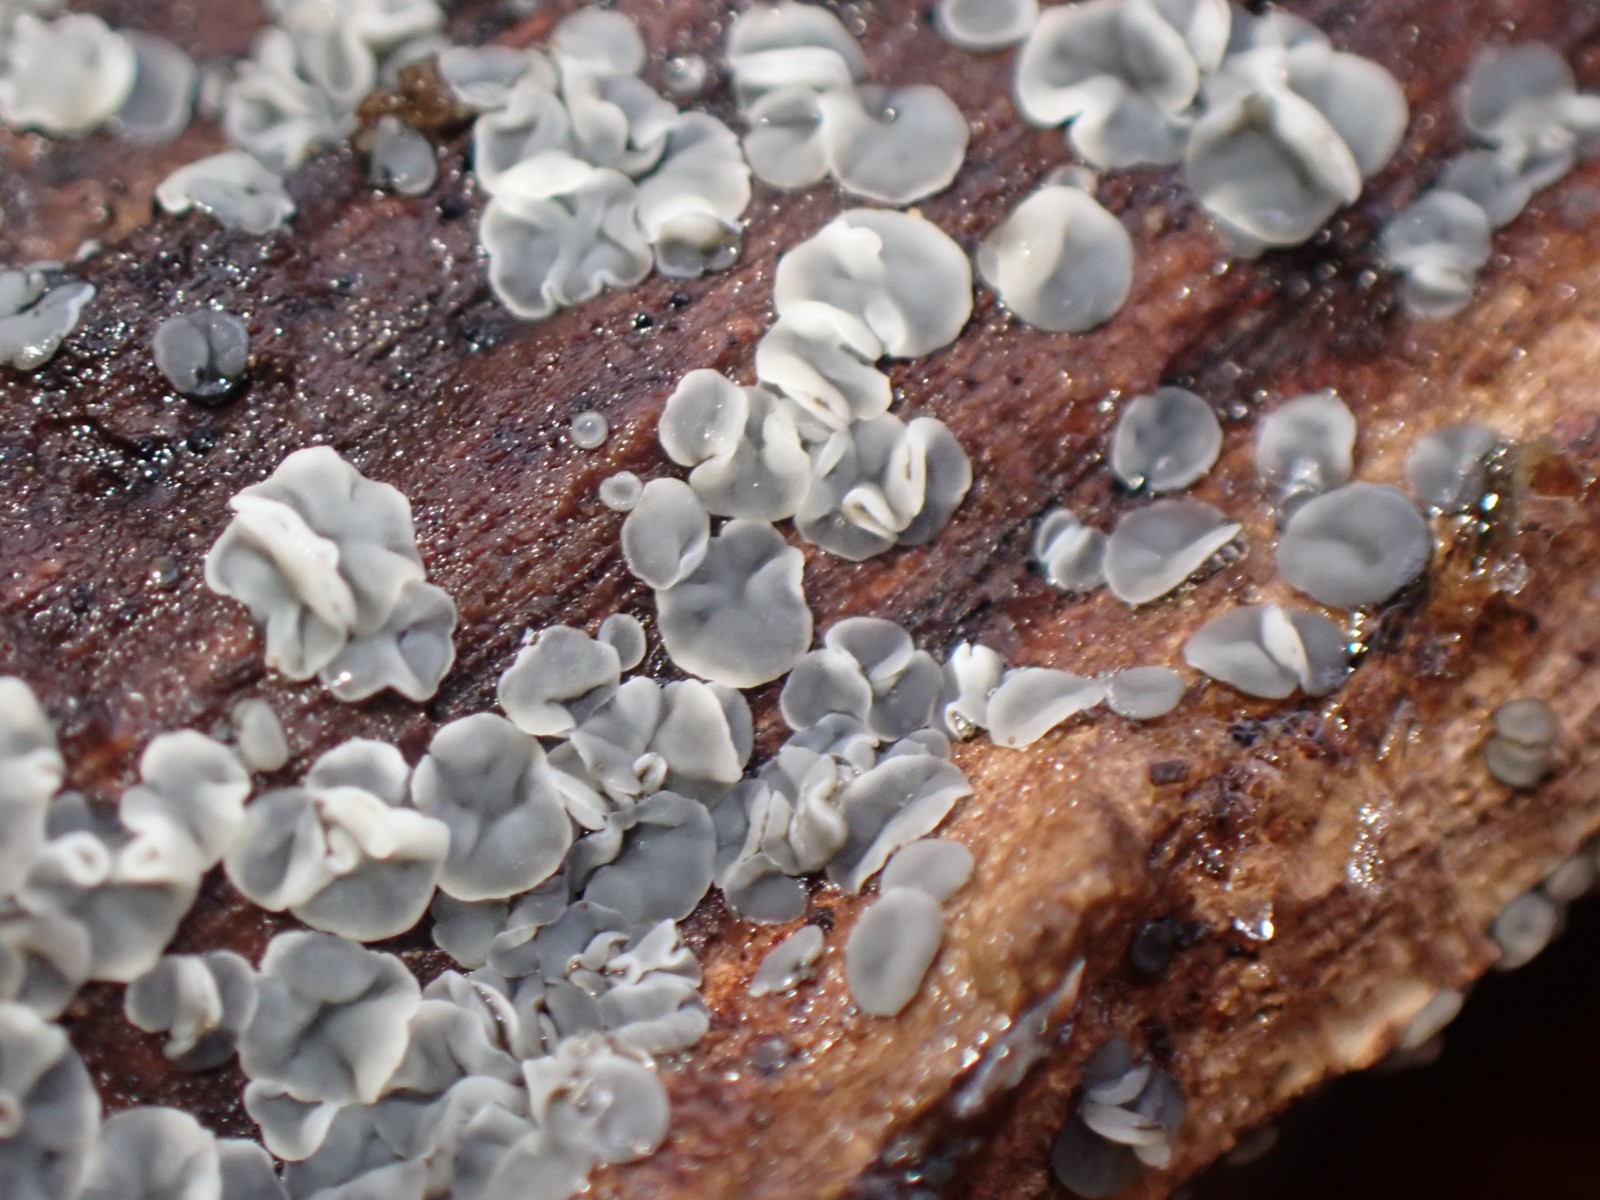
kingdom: Fungi
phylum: Ascomycota
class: Leotiomycetes
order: Helotiales
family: Mollisiaceae
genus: Mollisia
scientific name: Mollisia
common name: gråskive
